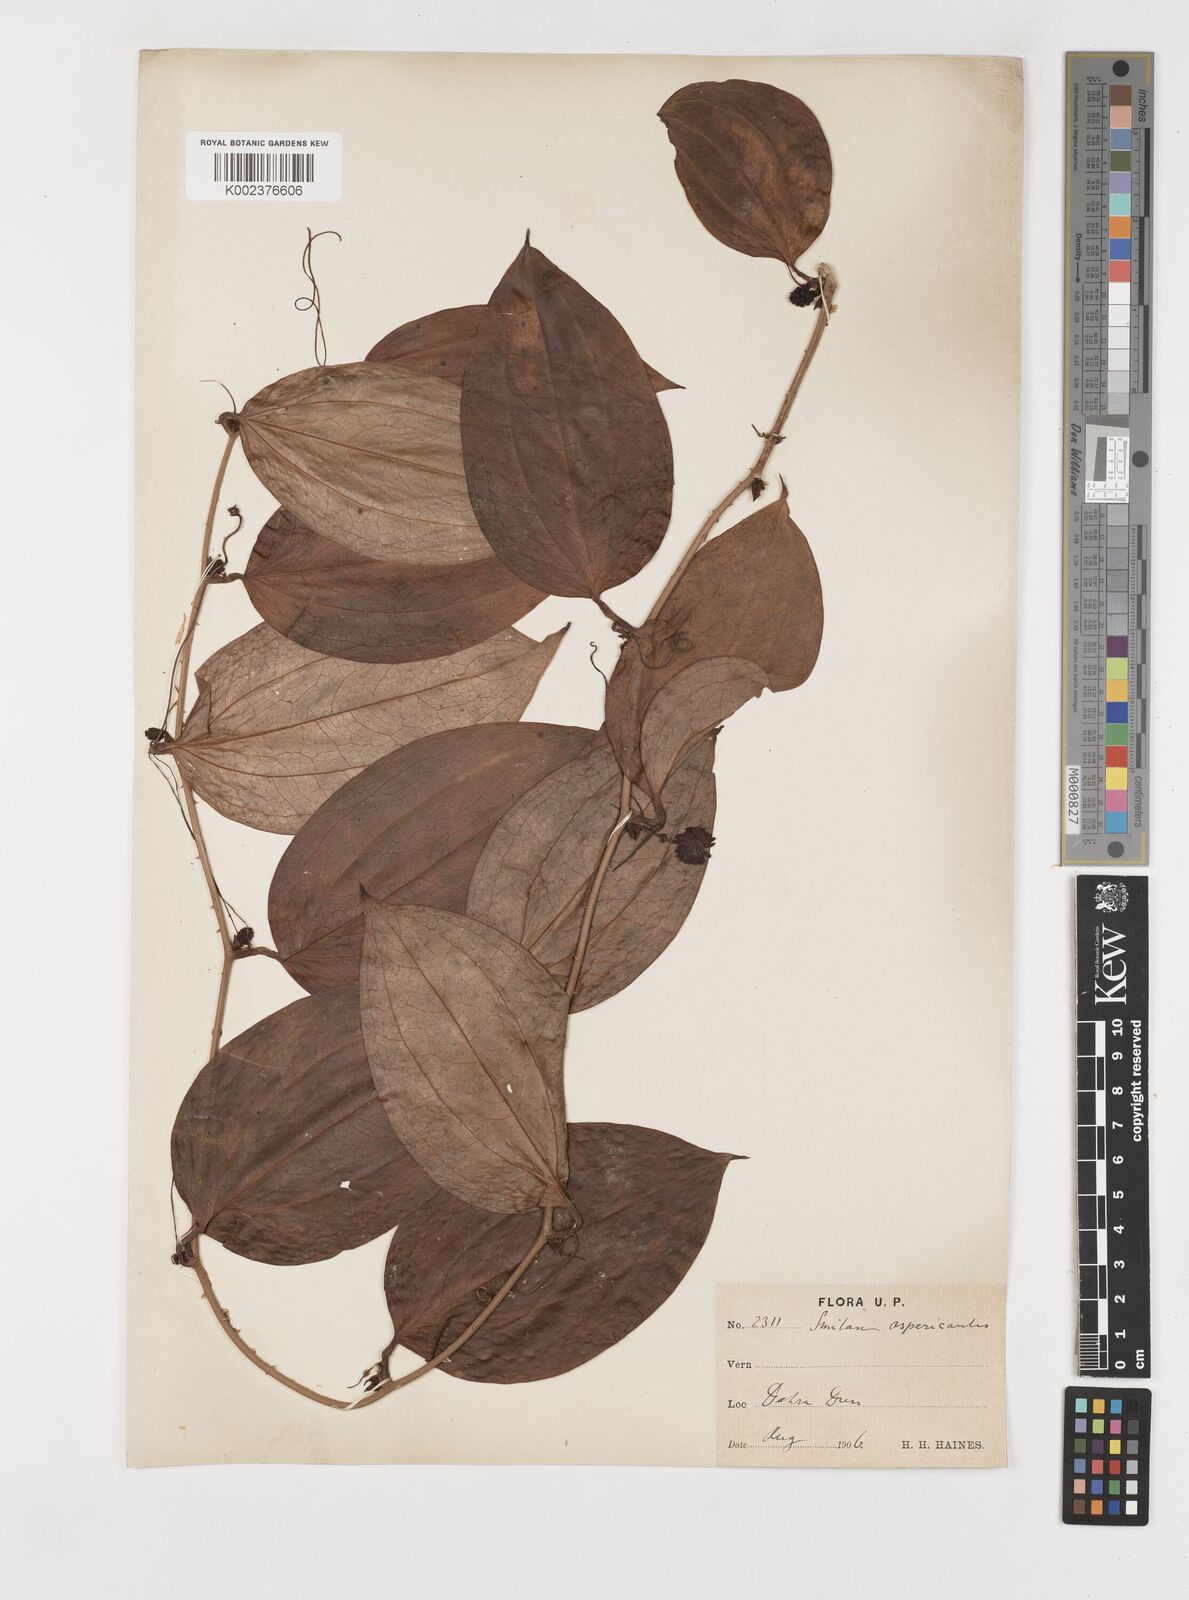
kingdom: Plantae
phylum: Tracheophyta
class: Liliopsida
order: Liliales
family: Smilacaceae
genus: Smilax
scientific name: Smilax aspericaulis
